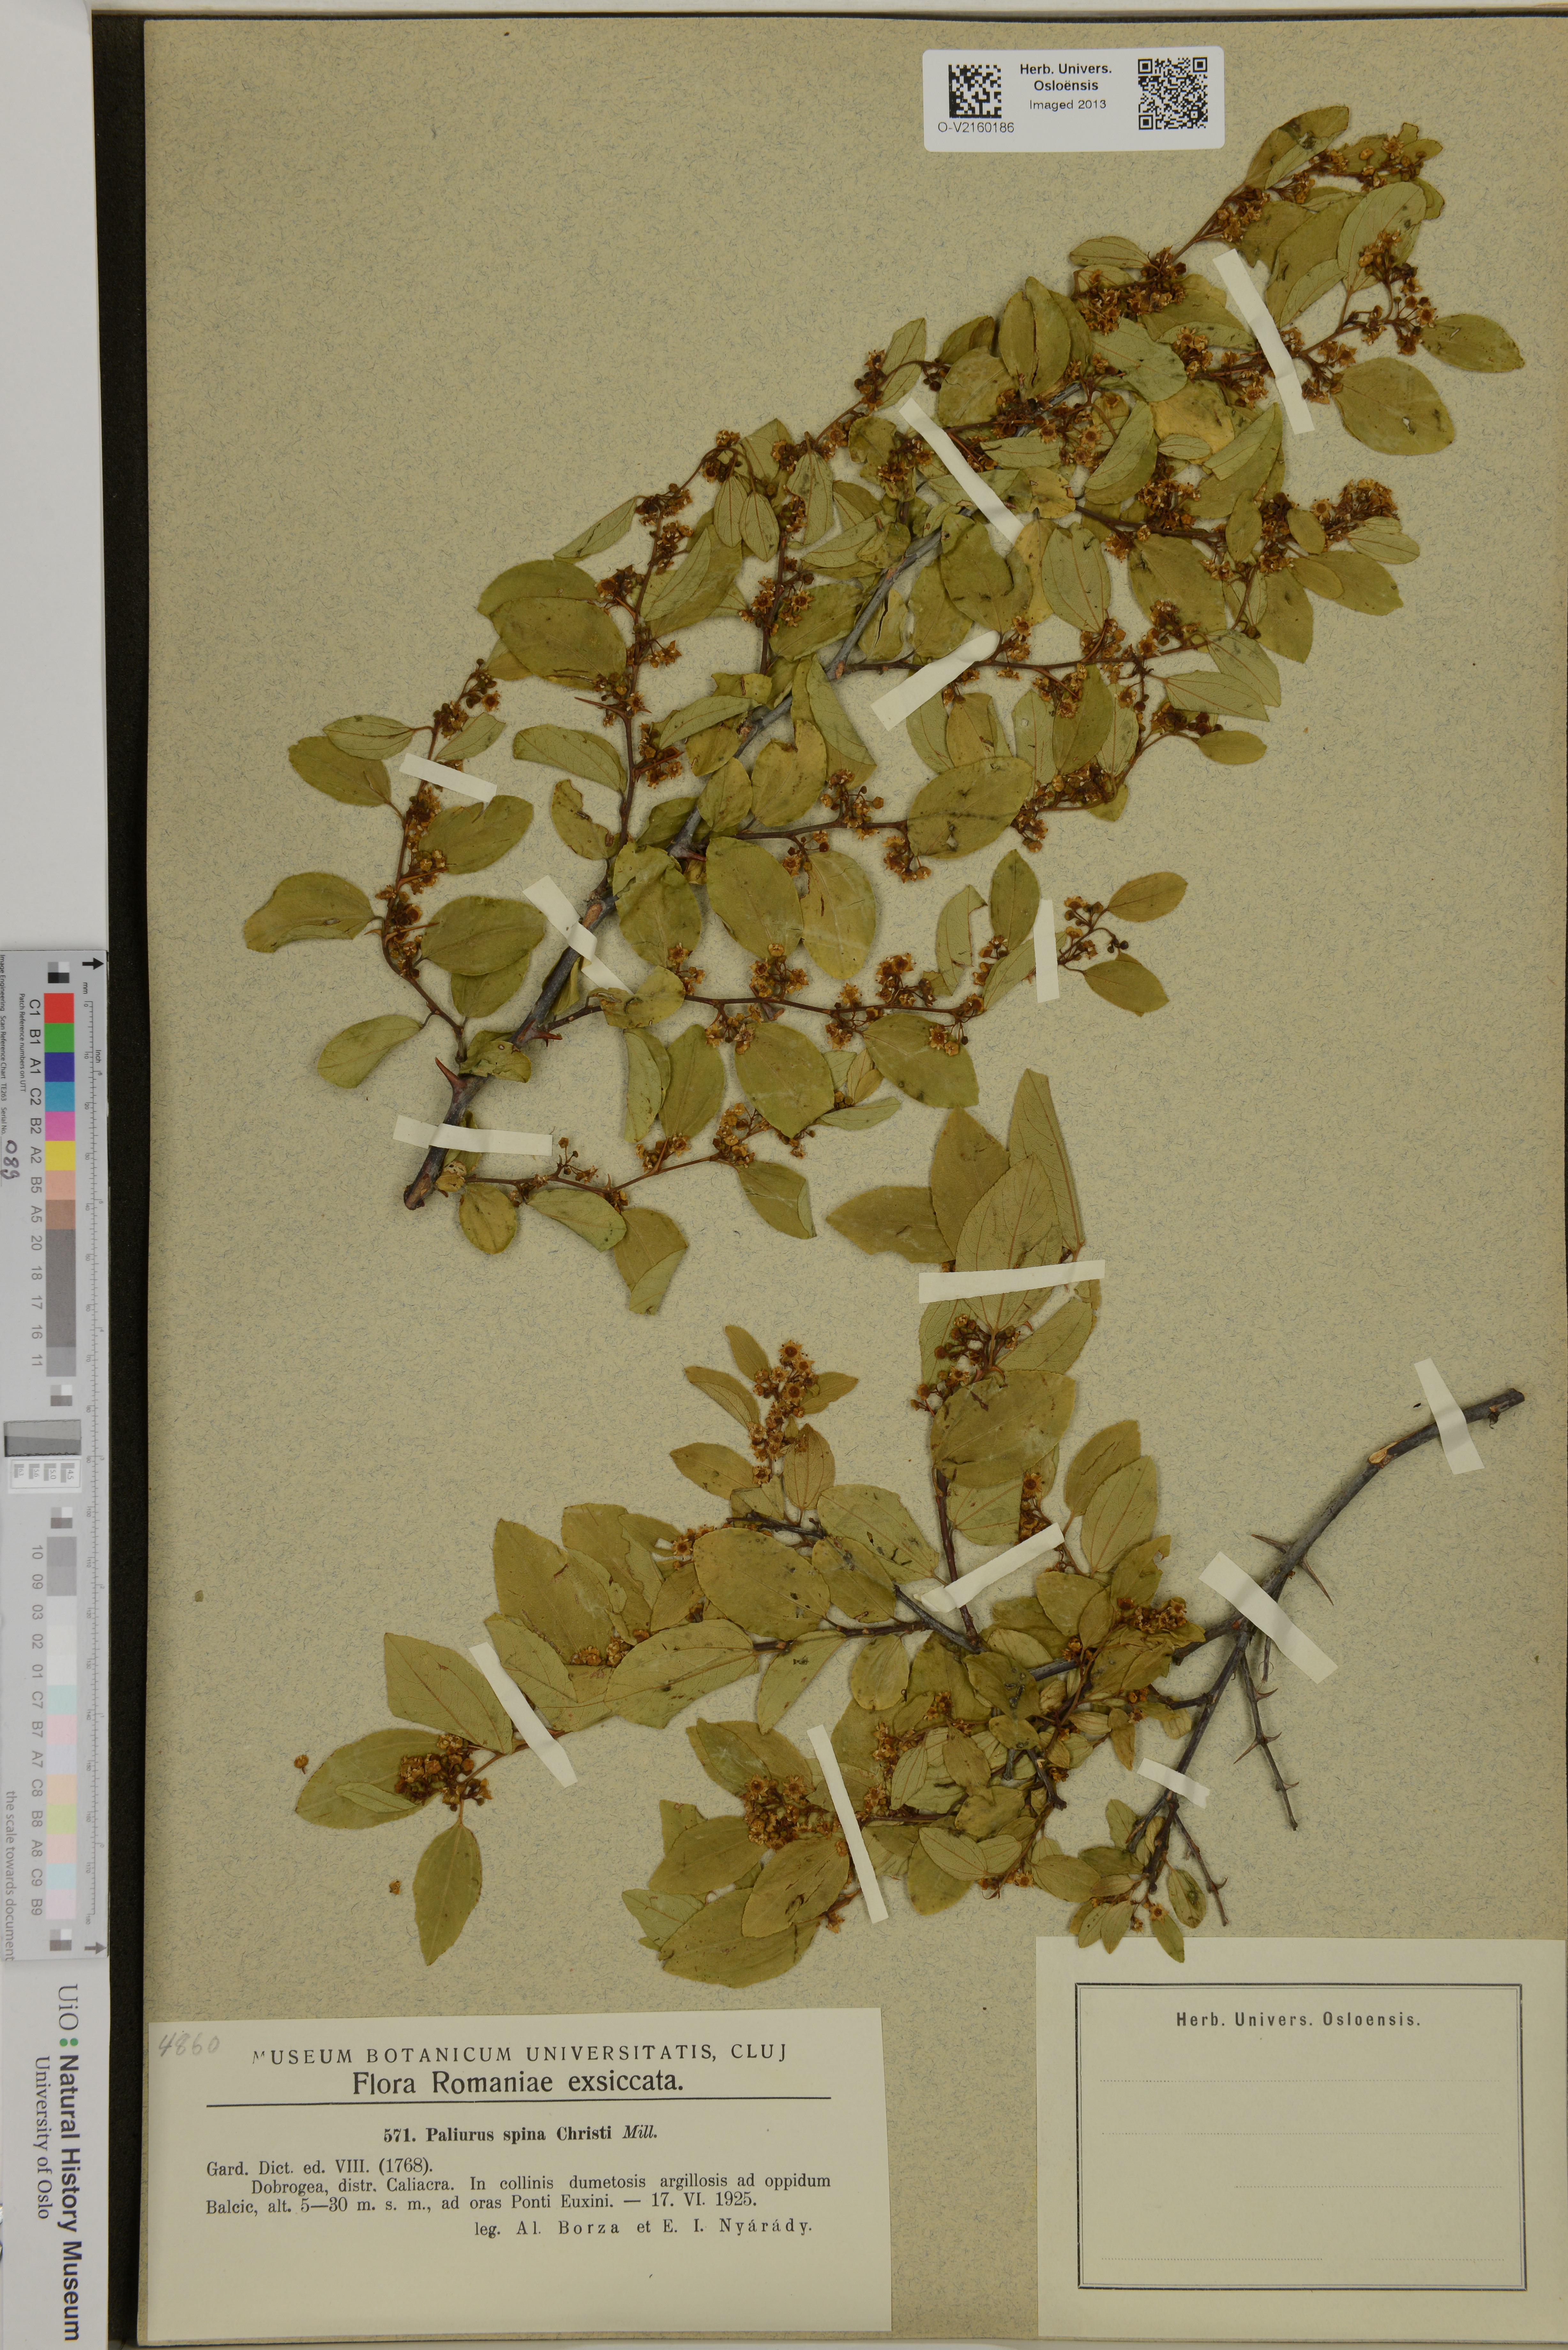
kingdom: Plantae
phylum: Tracheophyta
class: Magnoliopsida
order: Rosales
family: Rhamnaceae
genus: Paliurus
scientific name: Paliurus spina-christi
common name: Jeruselem thorn
